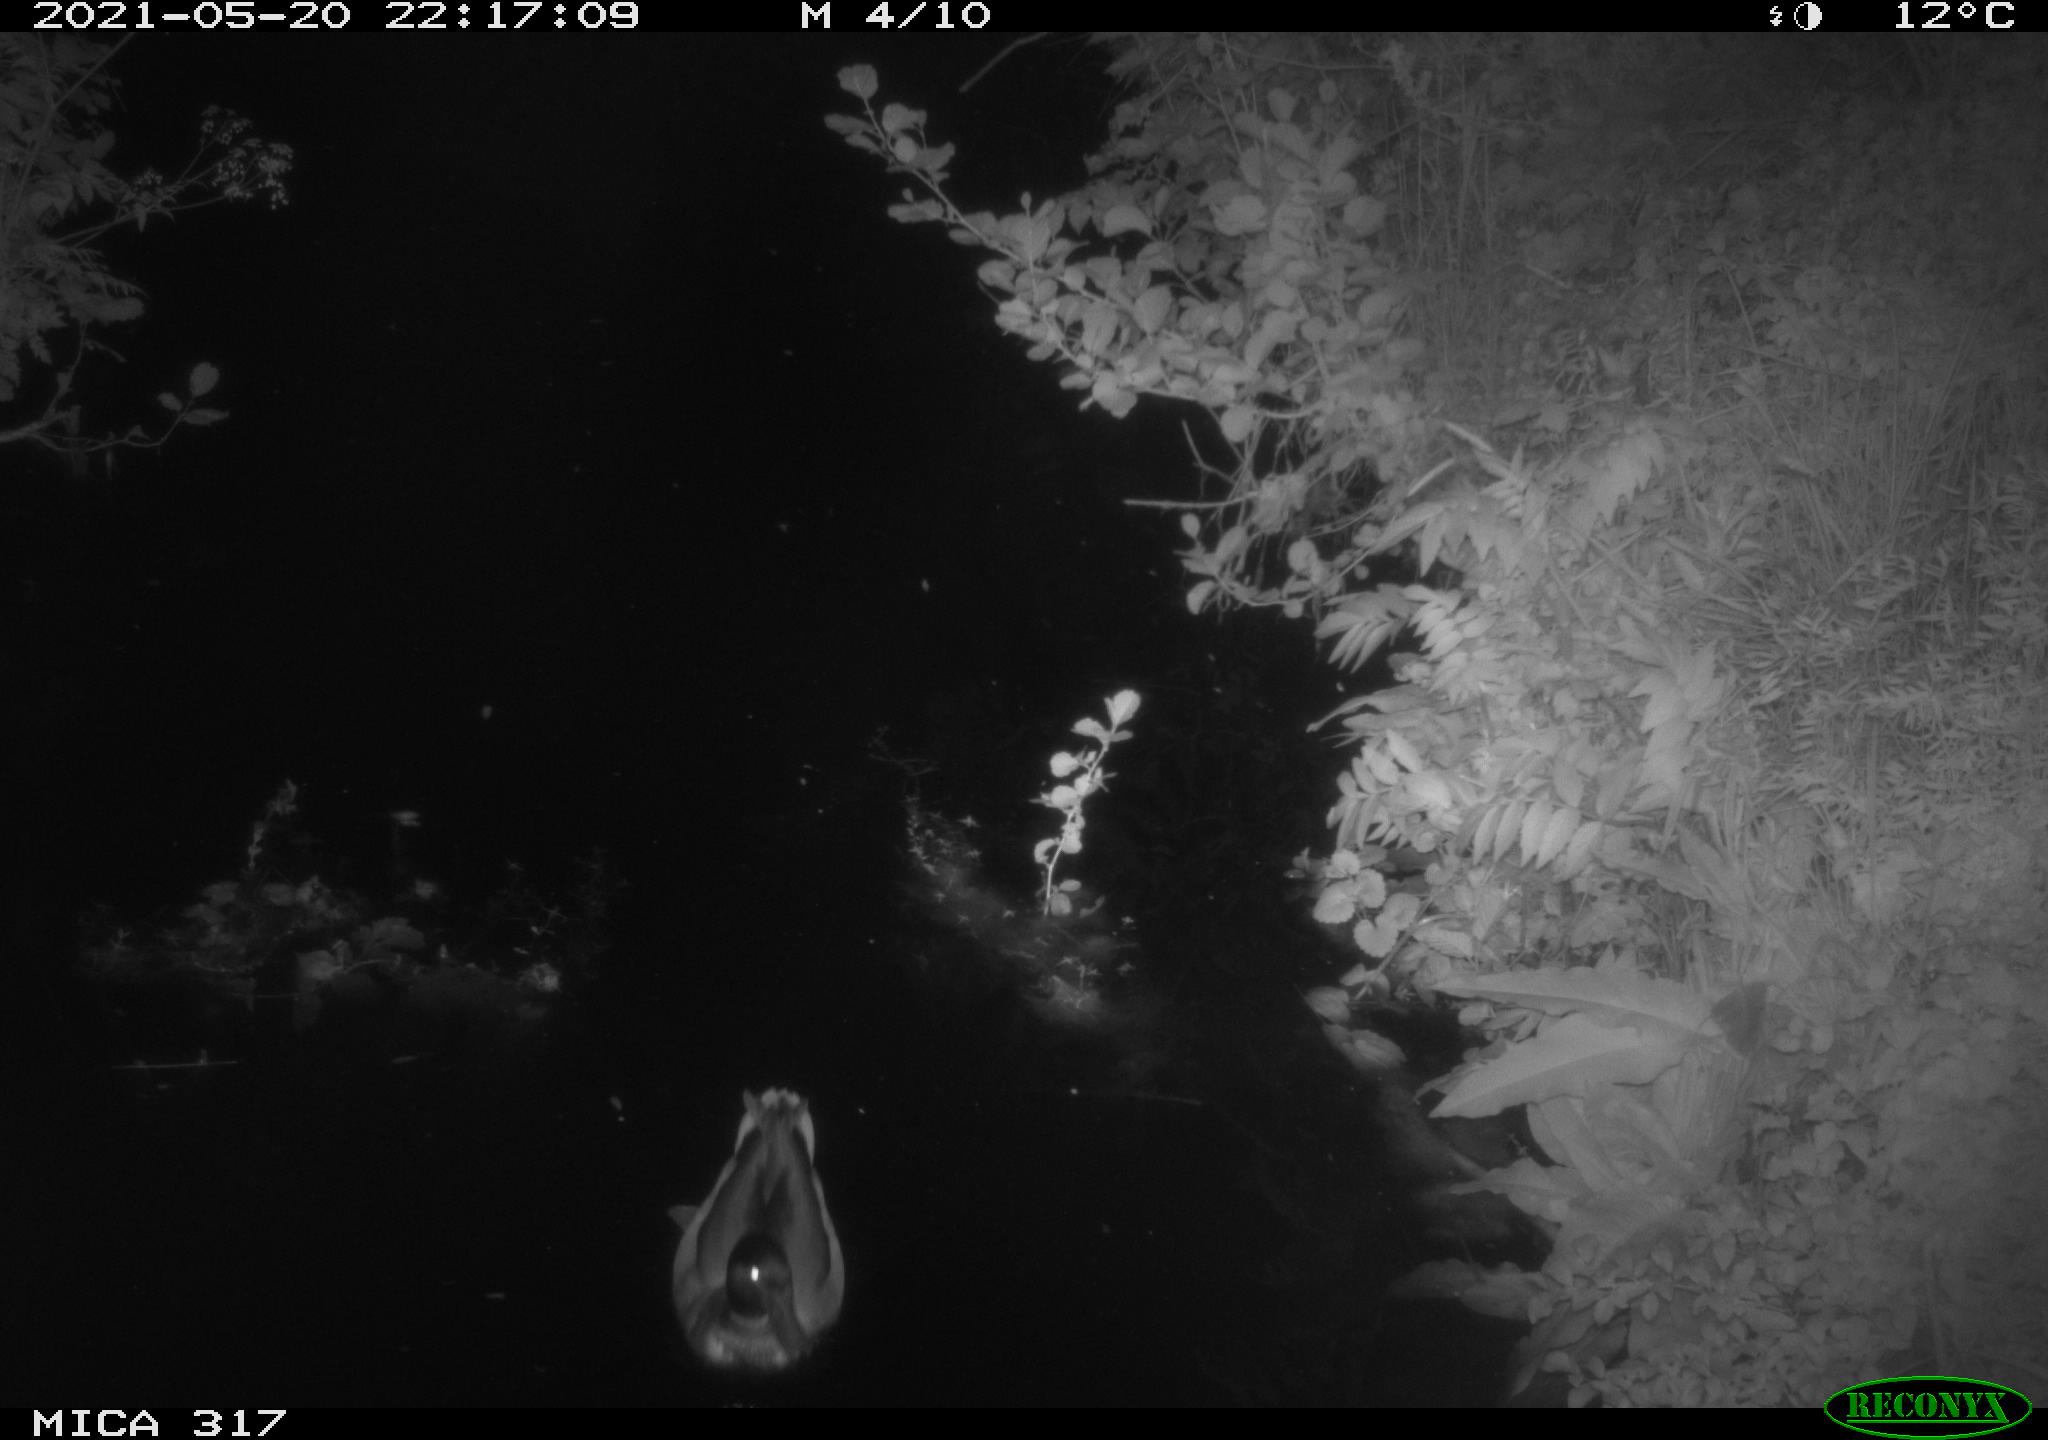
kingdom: Animalia
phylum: Chordata
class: Aves
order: Anseriformes
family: Anatidae
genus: Anas
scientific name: Anas
